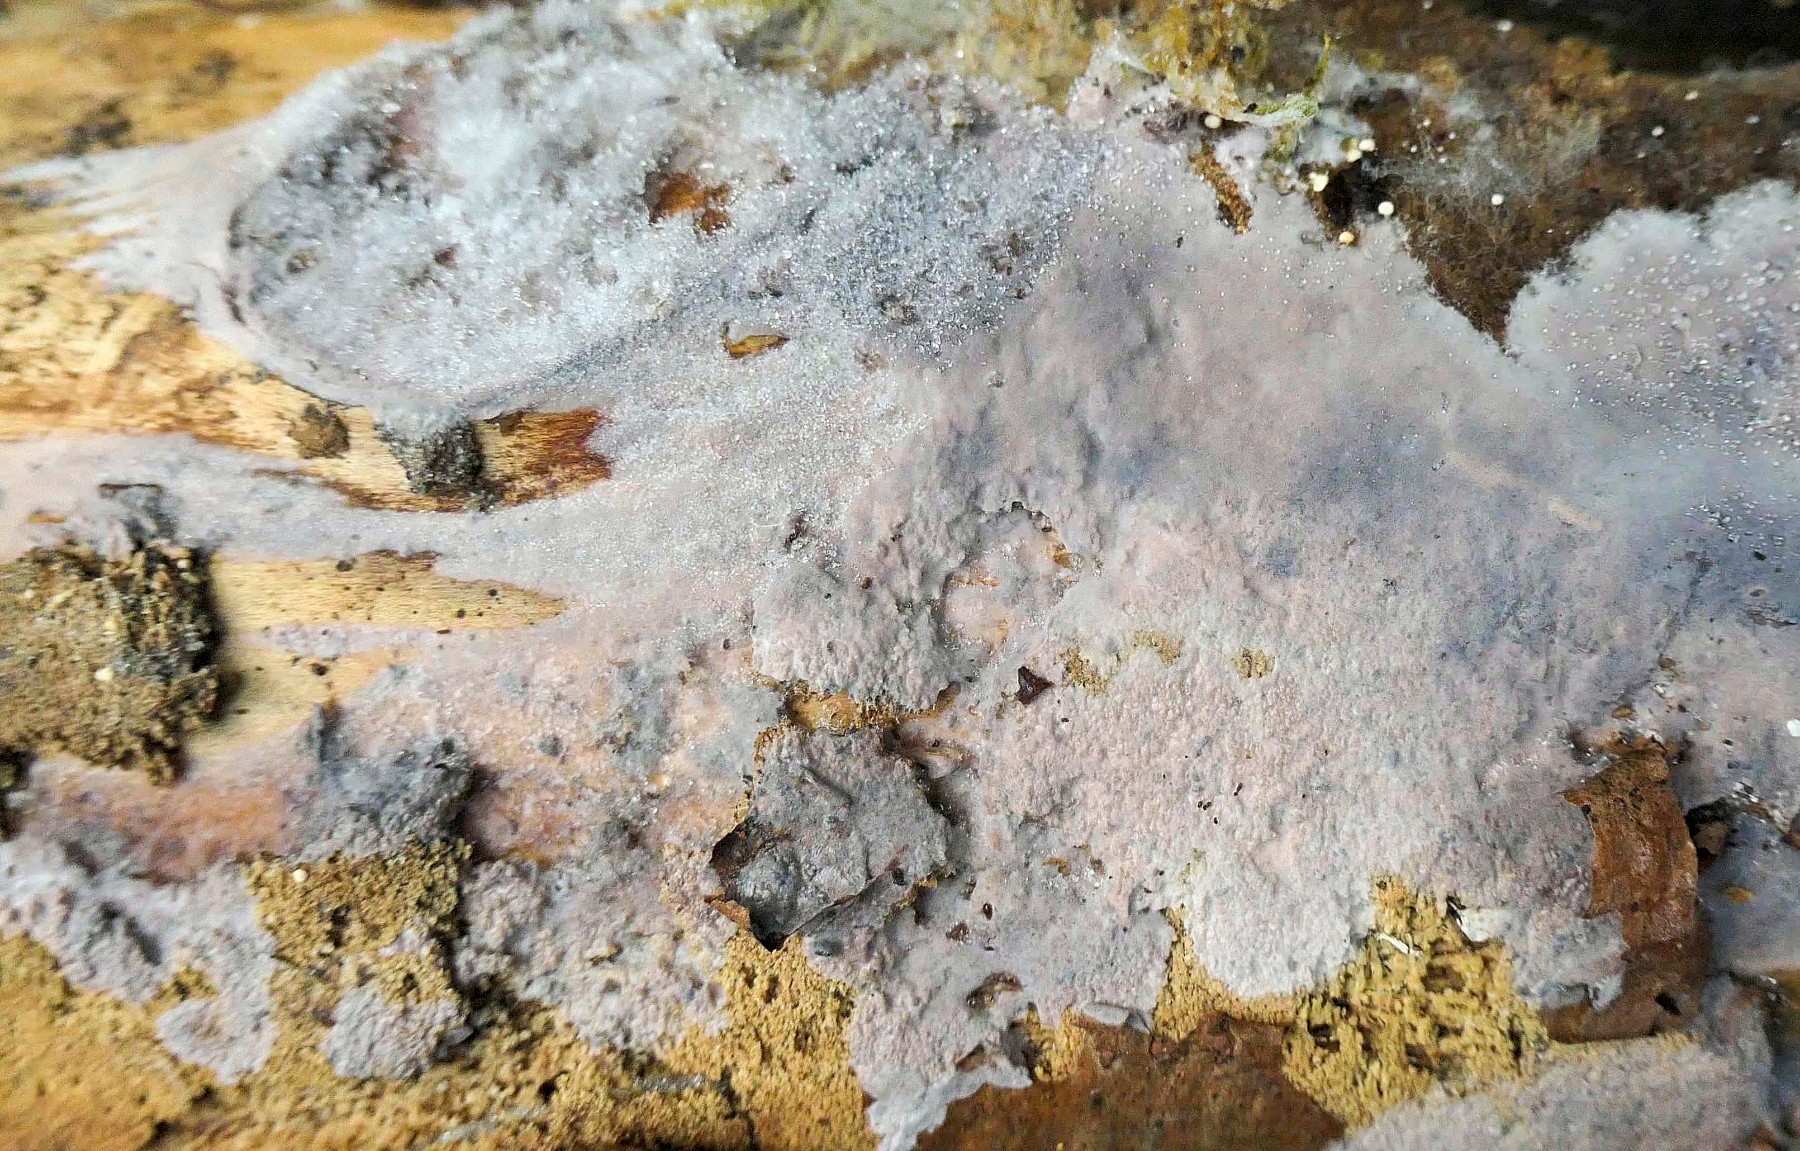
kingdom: Fungi
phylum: Basidiomycota
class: Agaricomycetes
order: Sebacinales
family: Sebacinaceae
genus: Sebacina
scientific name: Sebacina grisea
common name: blågrå bævrehinde
